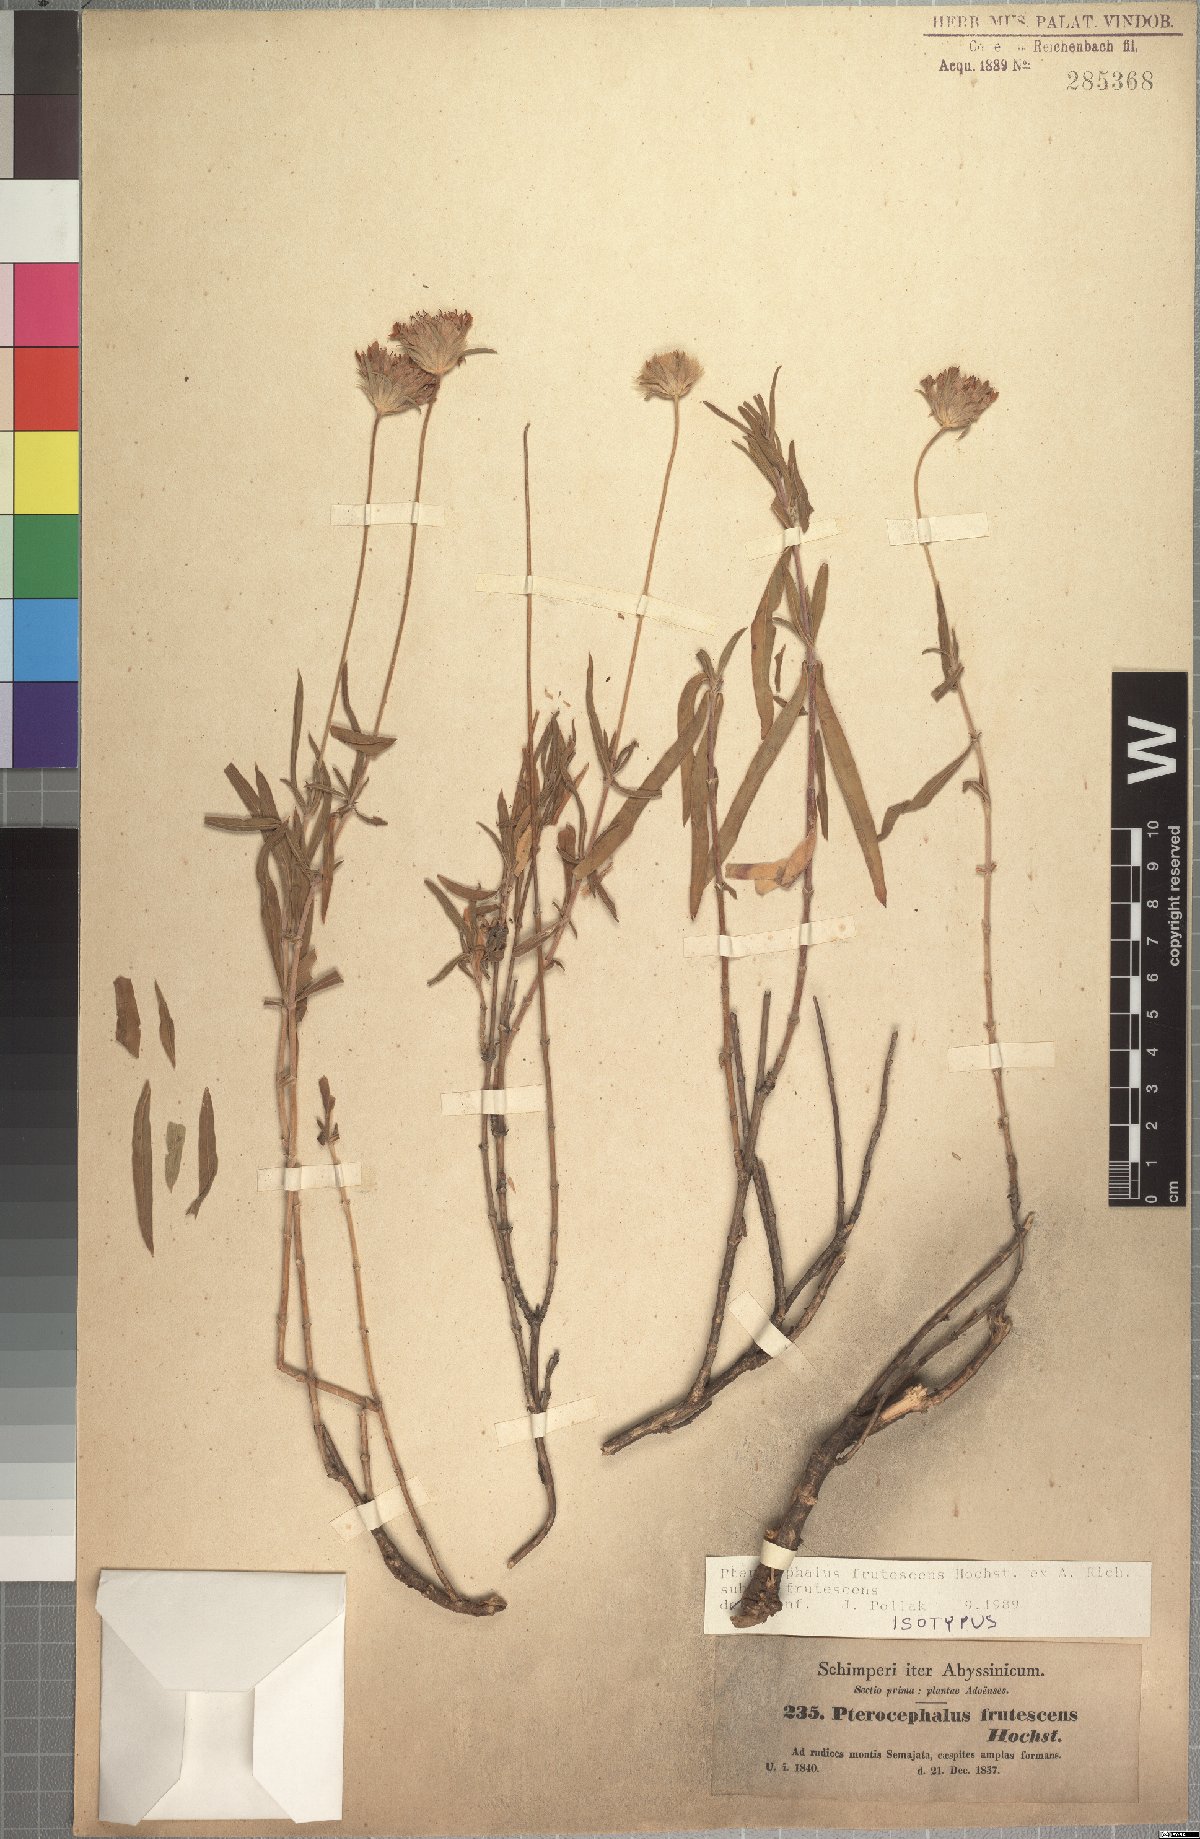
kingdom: Plantae
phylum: Tracheophyta
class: Magnoliopsida
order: Dipsacales
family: Caprifoliaceae
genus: Pterocephalus
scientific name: Pterocephalus frutescens
